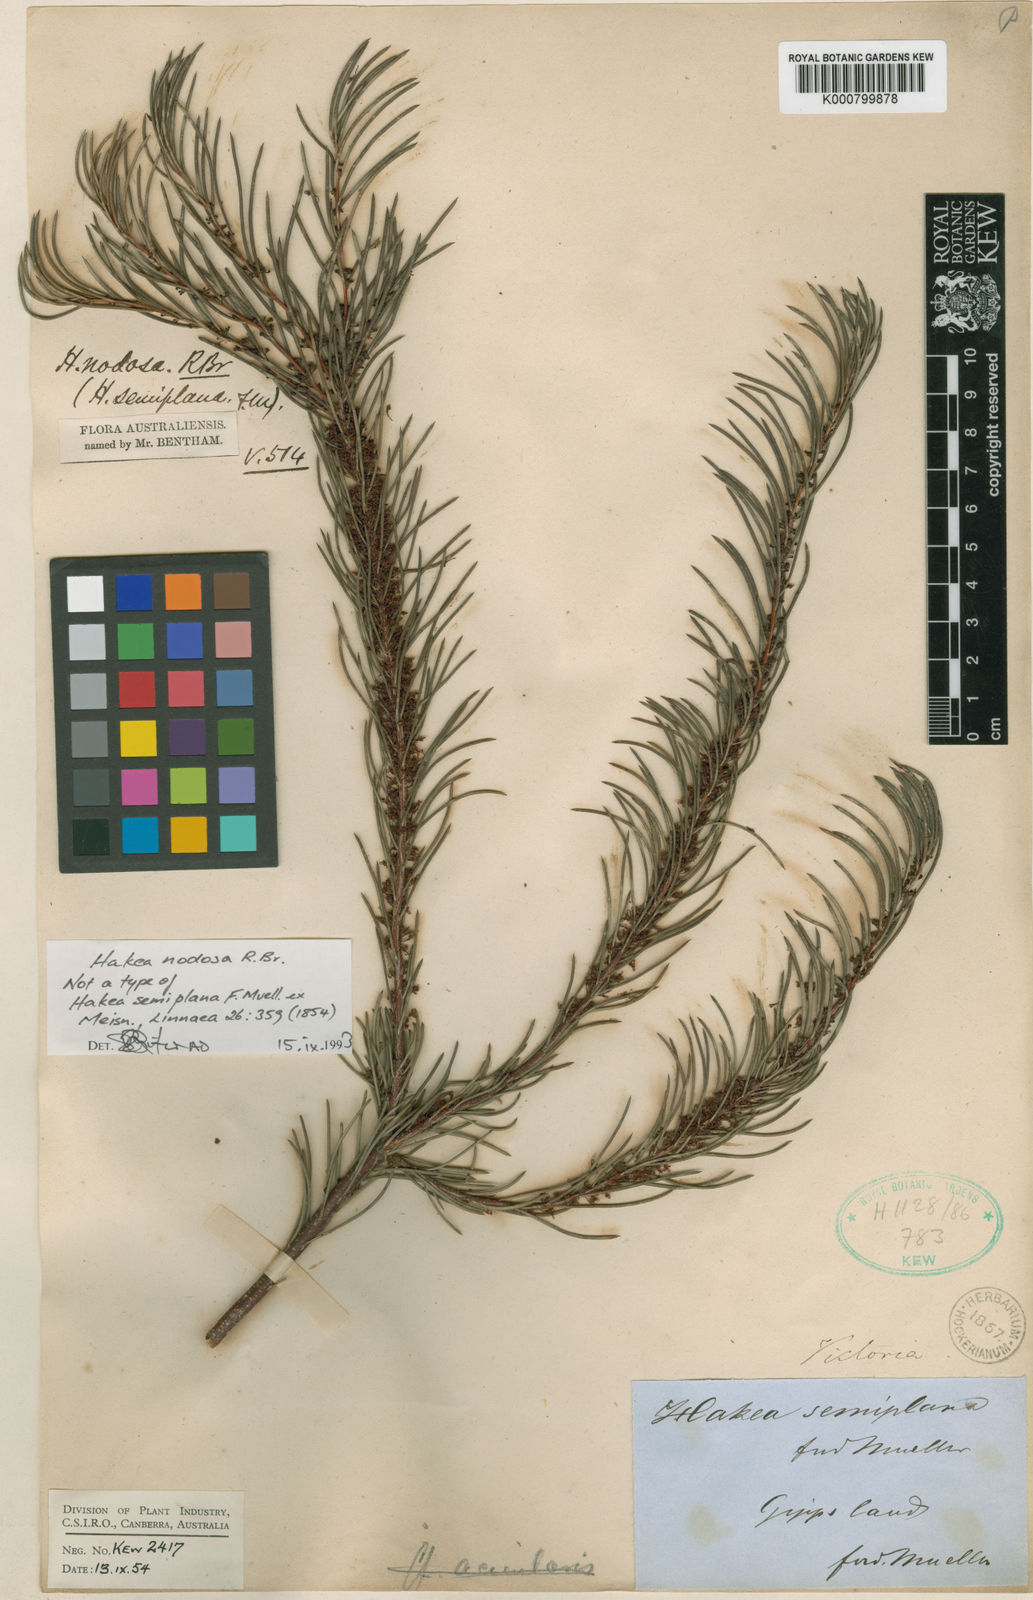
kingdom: Plantae
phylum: Tracheophyta
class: Magnoliopsida
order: Proteales
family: Proteaceae
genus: Hakea
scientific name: Hakea nodosa
